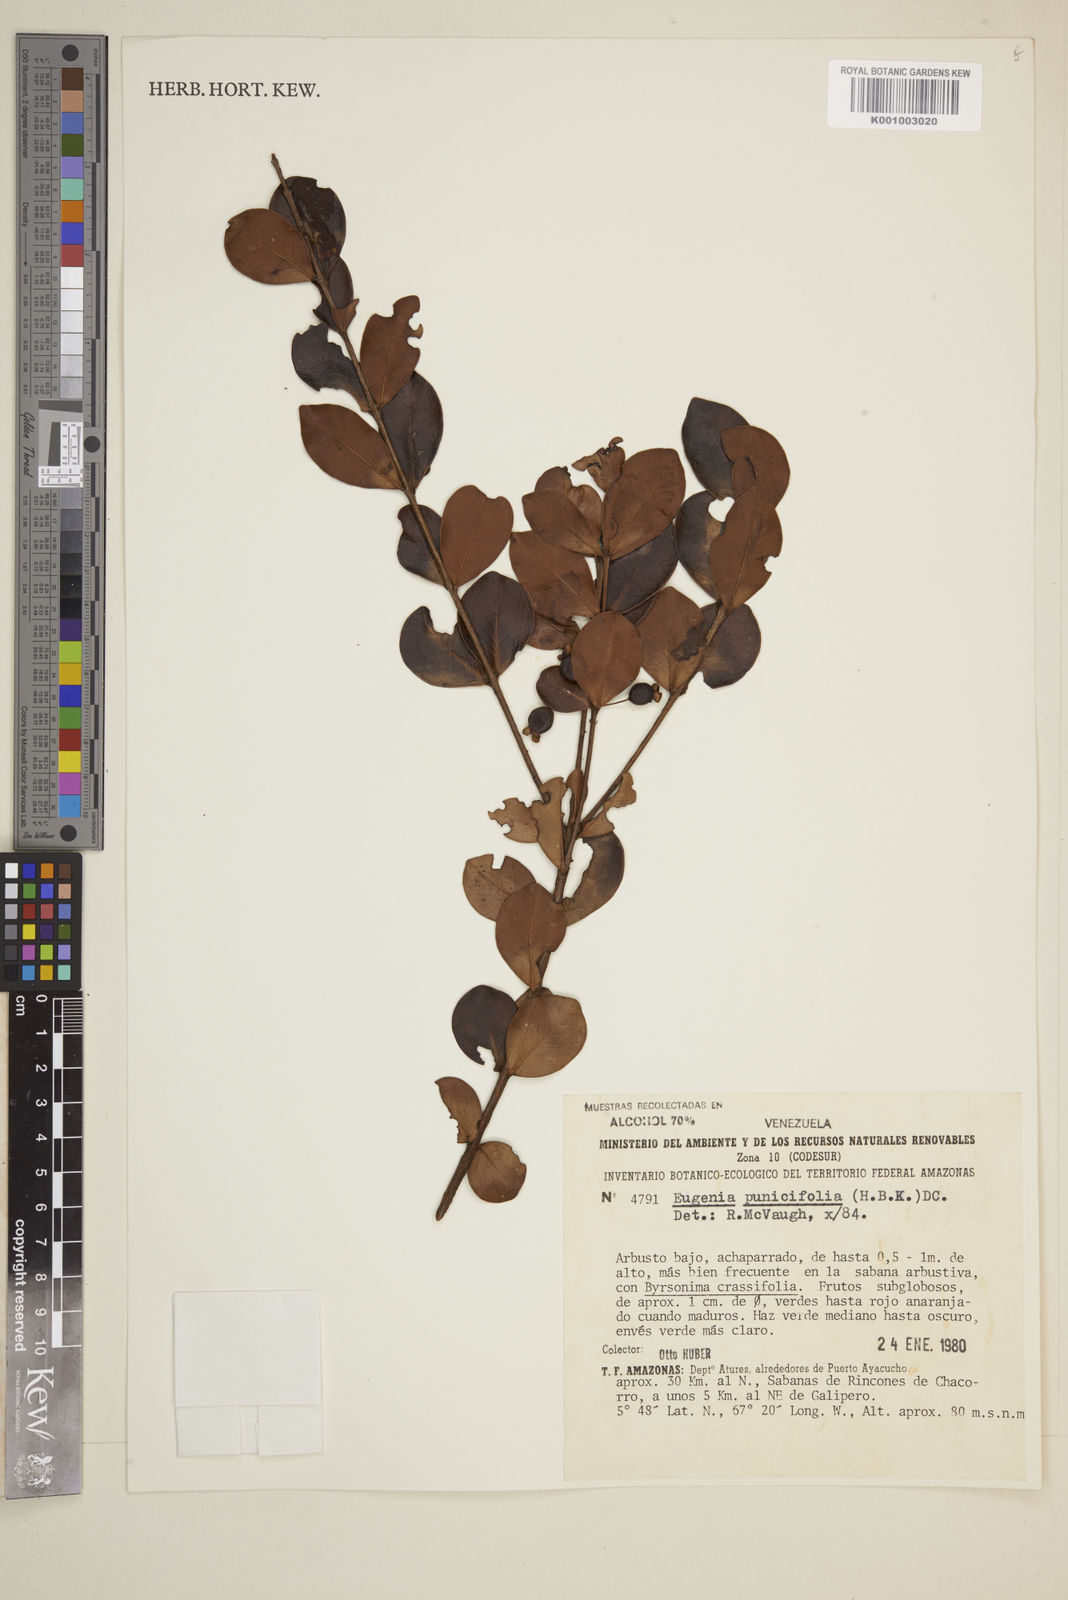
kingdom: Plantae
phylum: Tracheophyta
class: Magnoliopsida
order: Myrtales
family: Myrtaceae
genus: Eugenia
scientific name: Eugenia punicifolia
